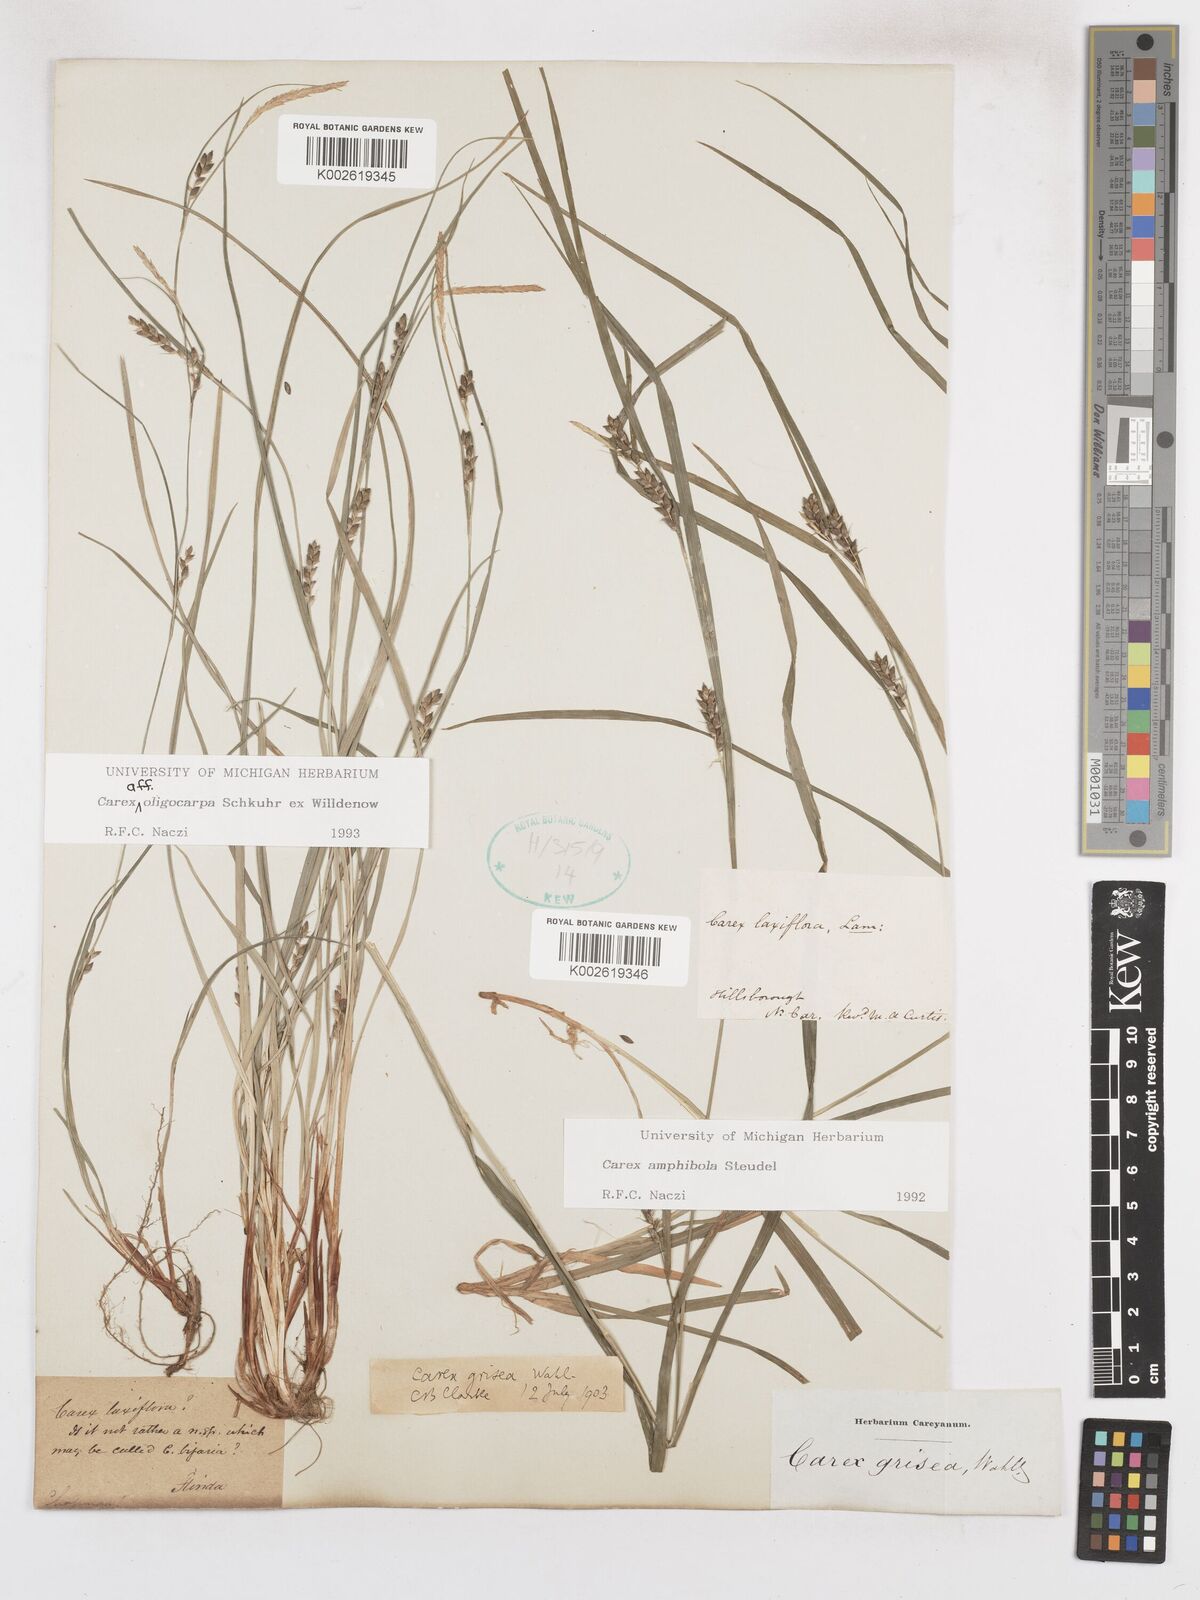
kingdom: Plantae
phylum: Tracheophyta
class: Liliopsida
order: Poales
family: Cyperaceae
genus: Carex
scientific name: Carex amphibola
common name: Amphibious sedge
